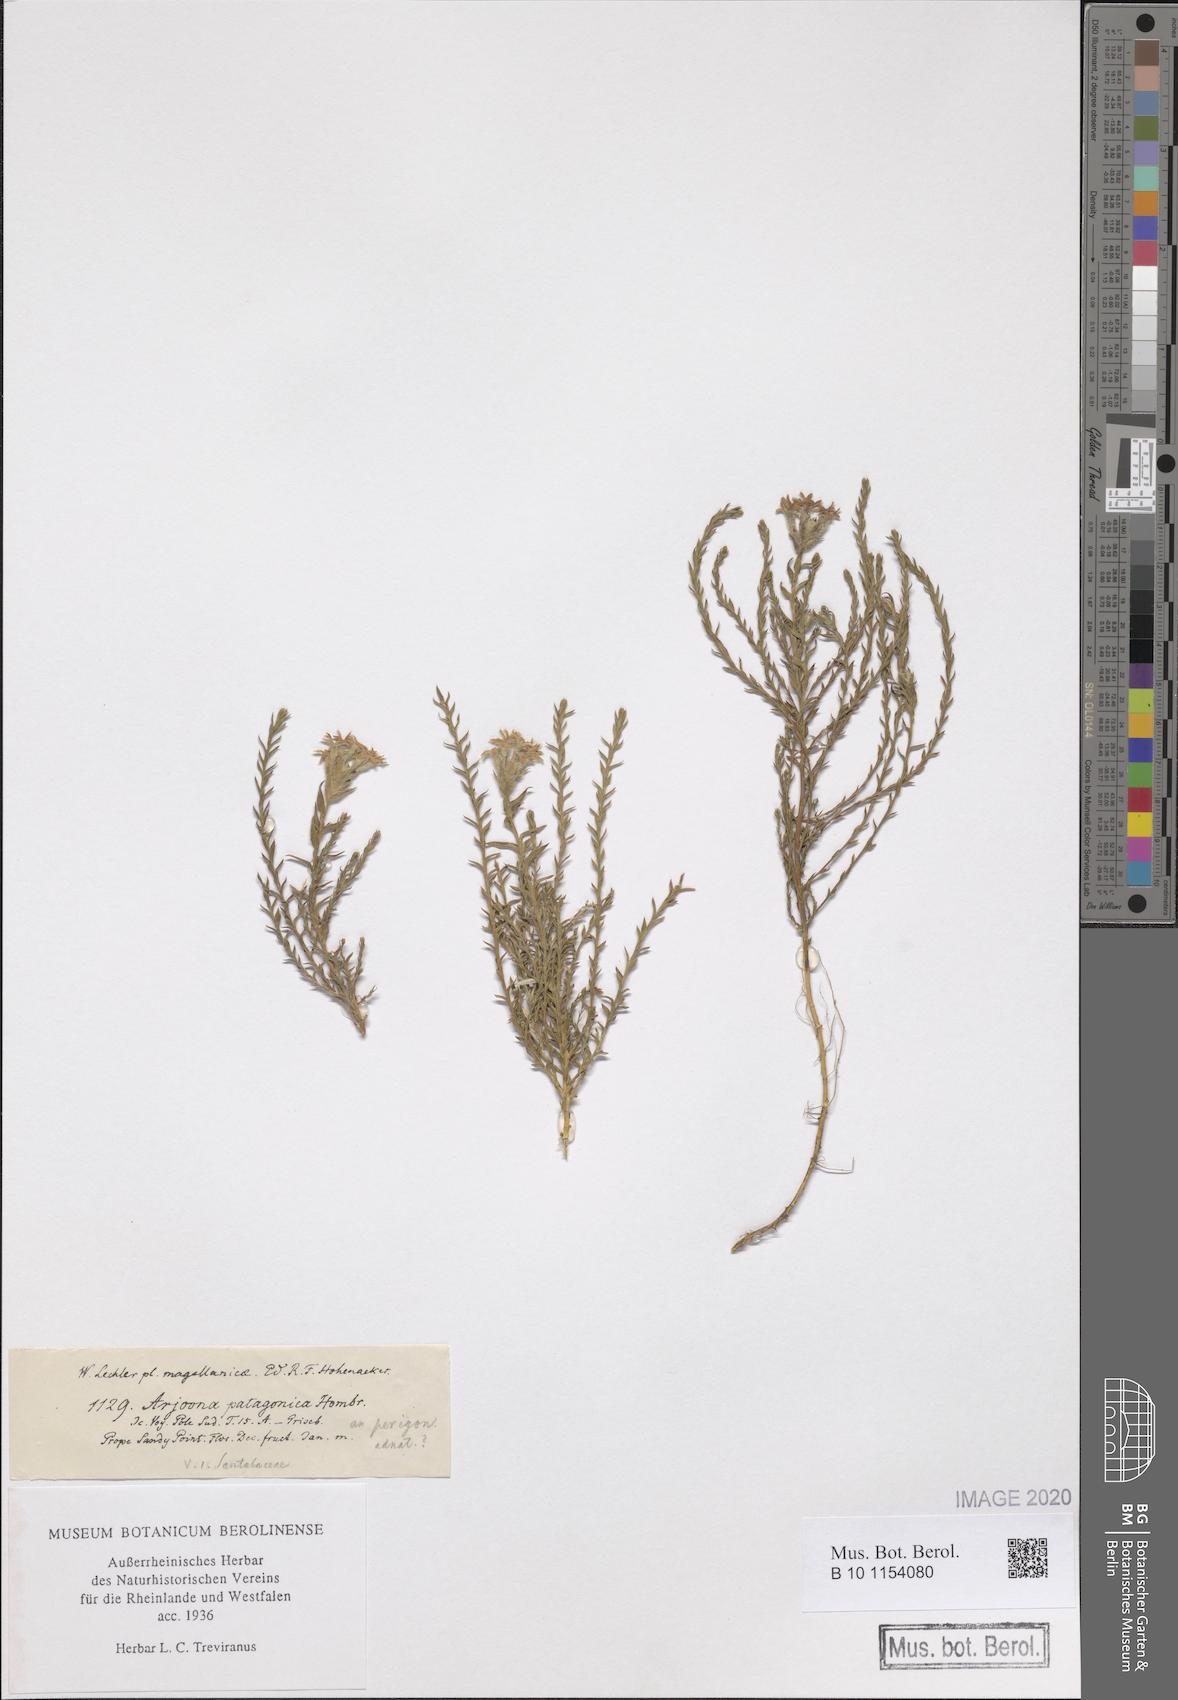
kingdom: Plantae
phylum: Tracheophyta
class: Magnoliopsida
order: Santalales
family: Schoepfiaceae
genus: Arjona
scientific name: Arjona patagonica
